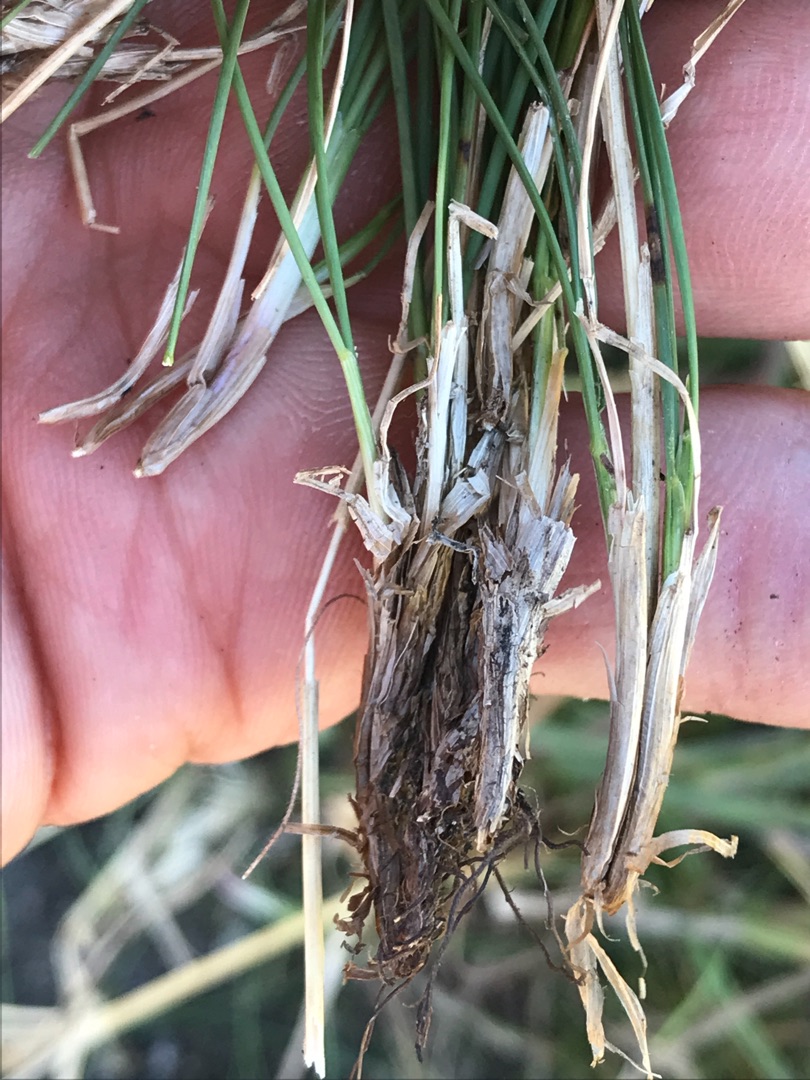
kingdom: Plantae
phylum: Tracheophyta
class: Liliopsida
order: Poales
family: Poaceae
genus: Festuca
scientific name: Festuca trachyphylla
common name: Bakke-svingel
